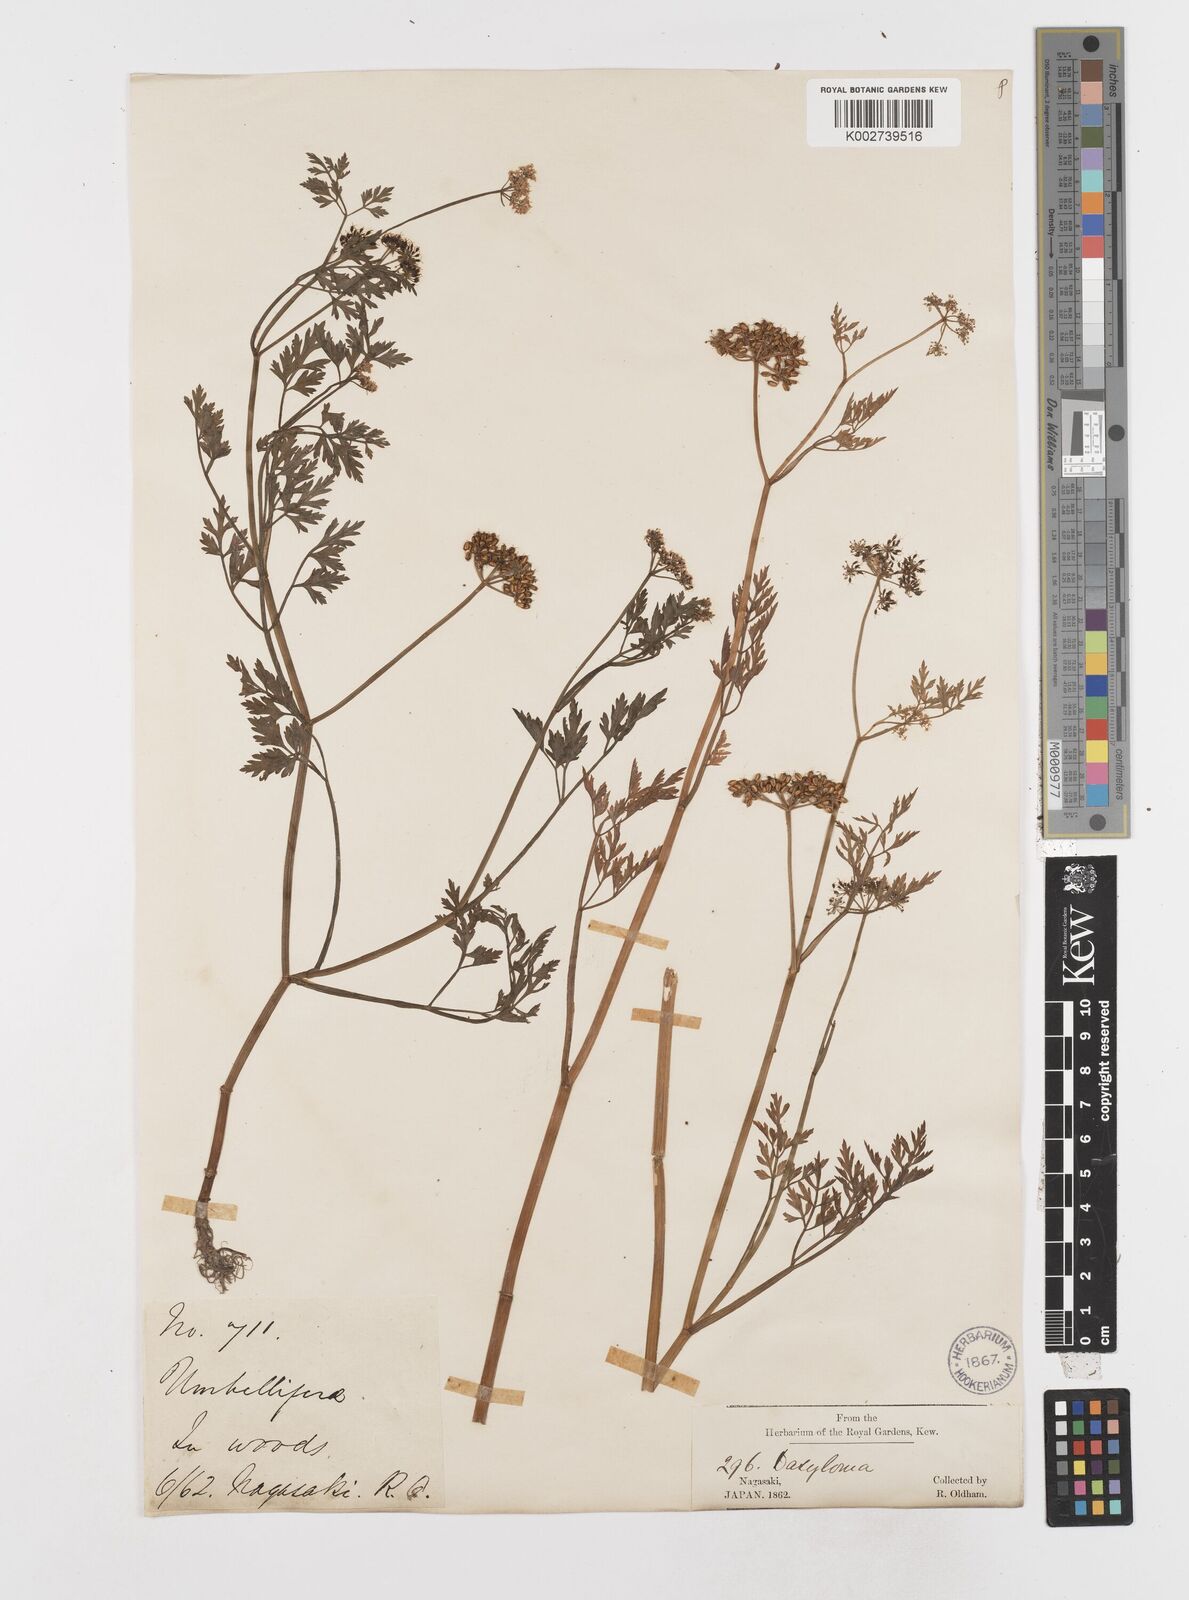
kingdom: Plantae
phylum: Tracheophyta
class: Magnoliopsida
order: Apiales
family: Apiaceae
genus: Oenanthe
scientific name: Oenanthe javanica
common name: Java water-dropwort
